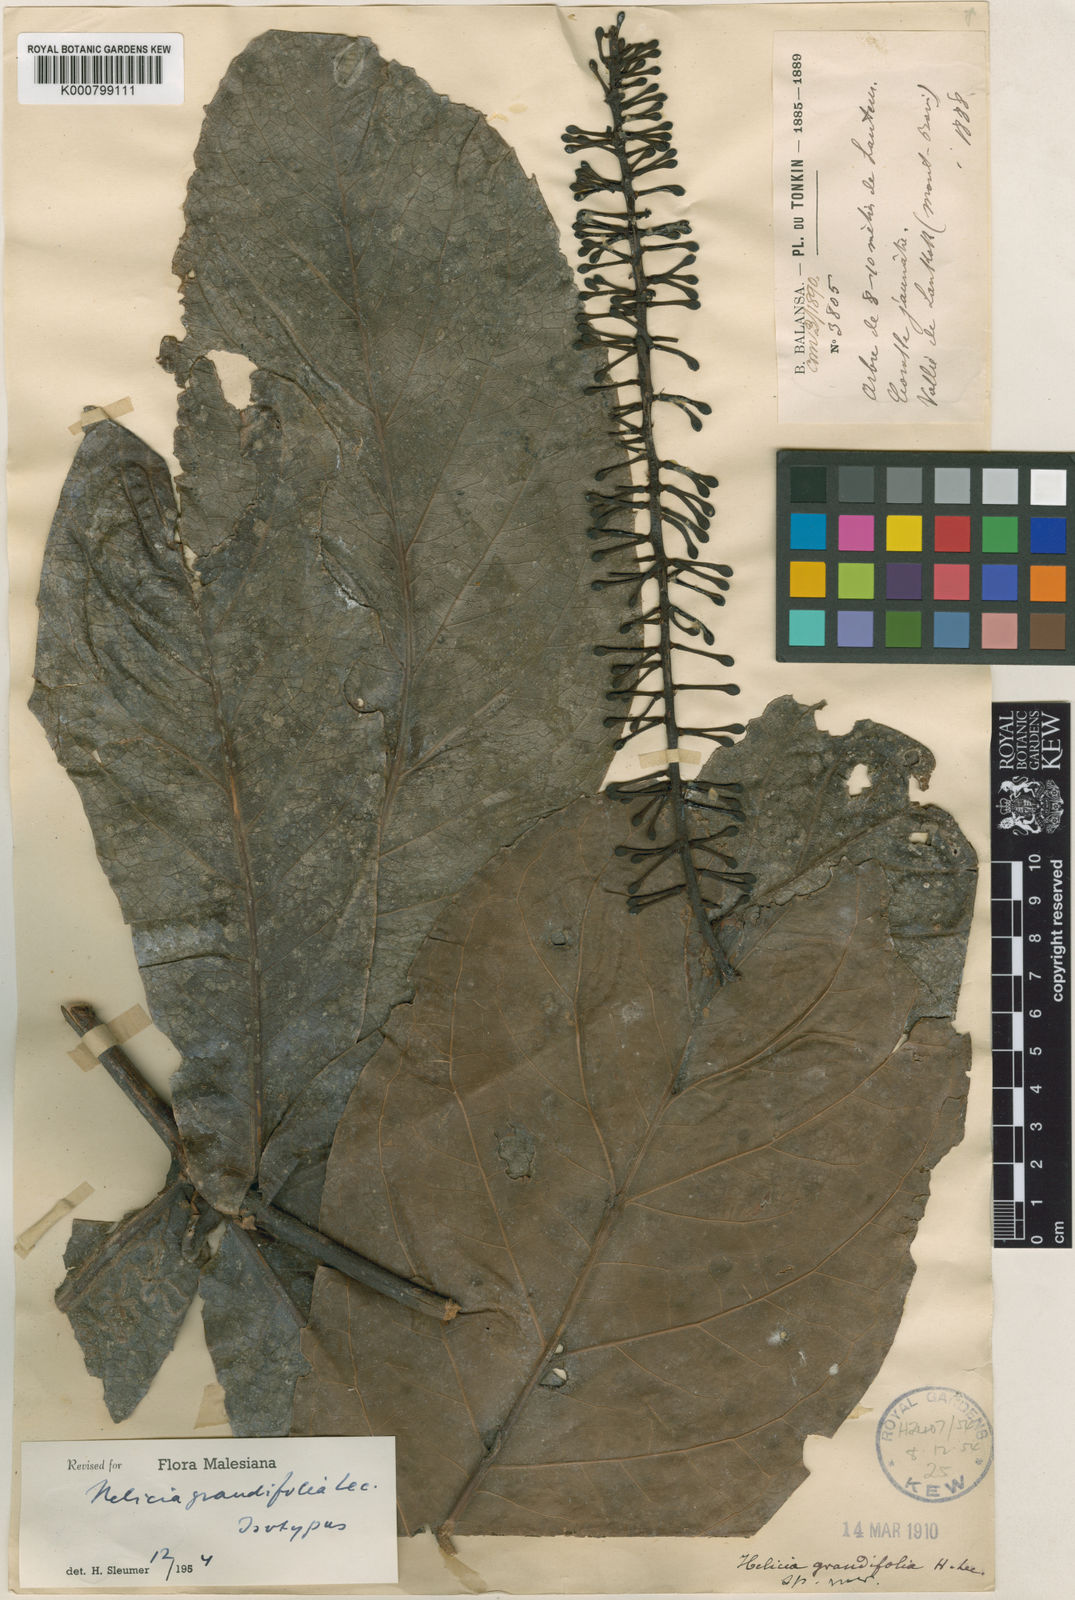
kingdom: Plantae
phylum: Tracheophyta
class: Magnoliopsida
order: Proteales
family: Proteaceae
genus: Helicia
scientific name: Helicia grandifolia
